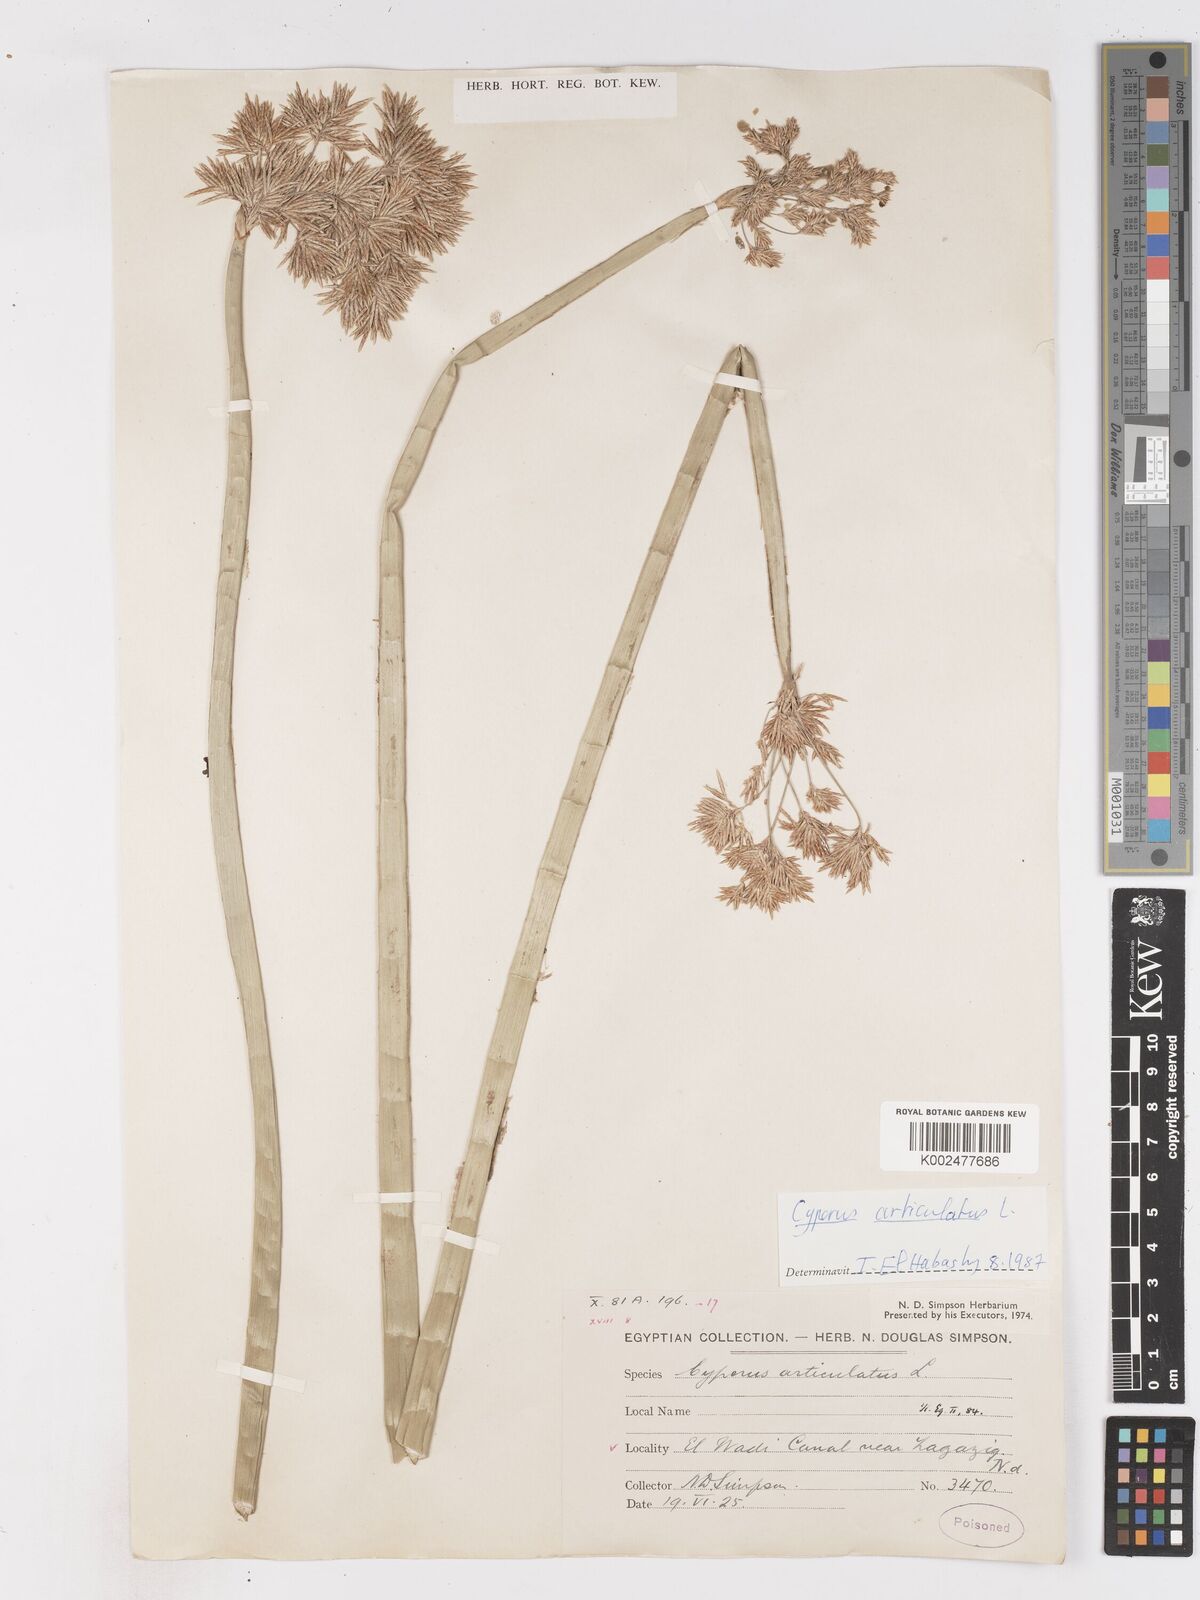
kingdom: Plantae
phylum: Tracheophyta
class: Liliopsida
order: Poales
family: Cyperaceae
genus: Cyperus
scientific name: Cyperus articulatus
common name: Jointed flatsedge
